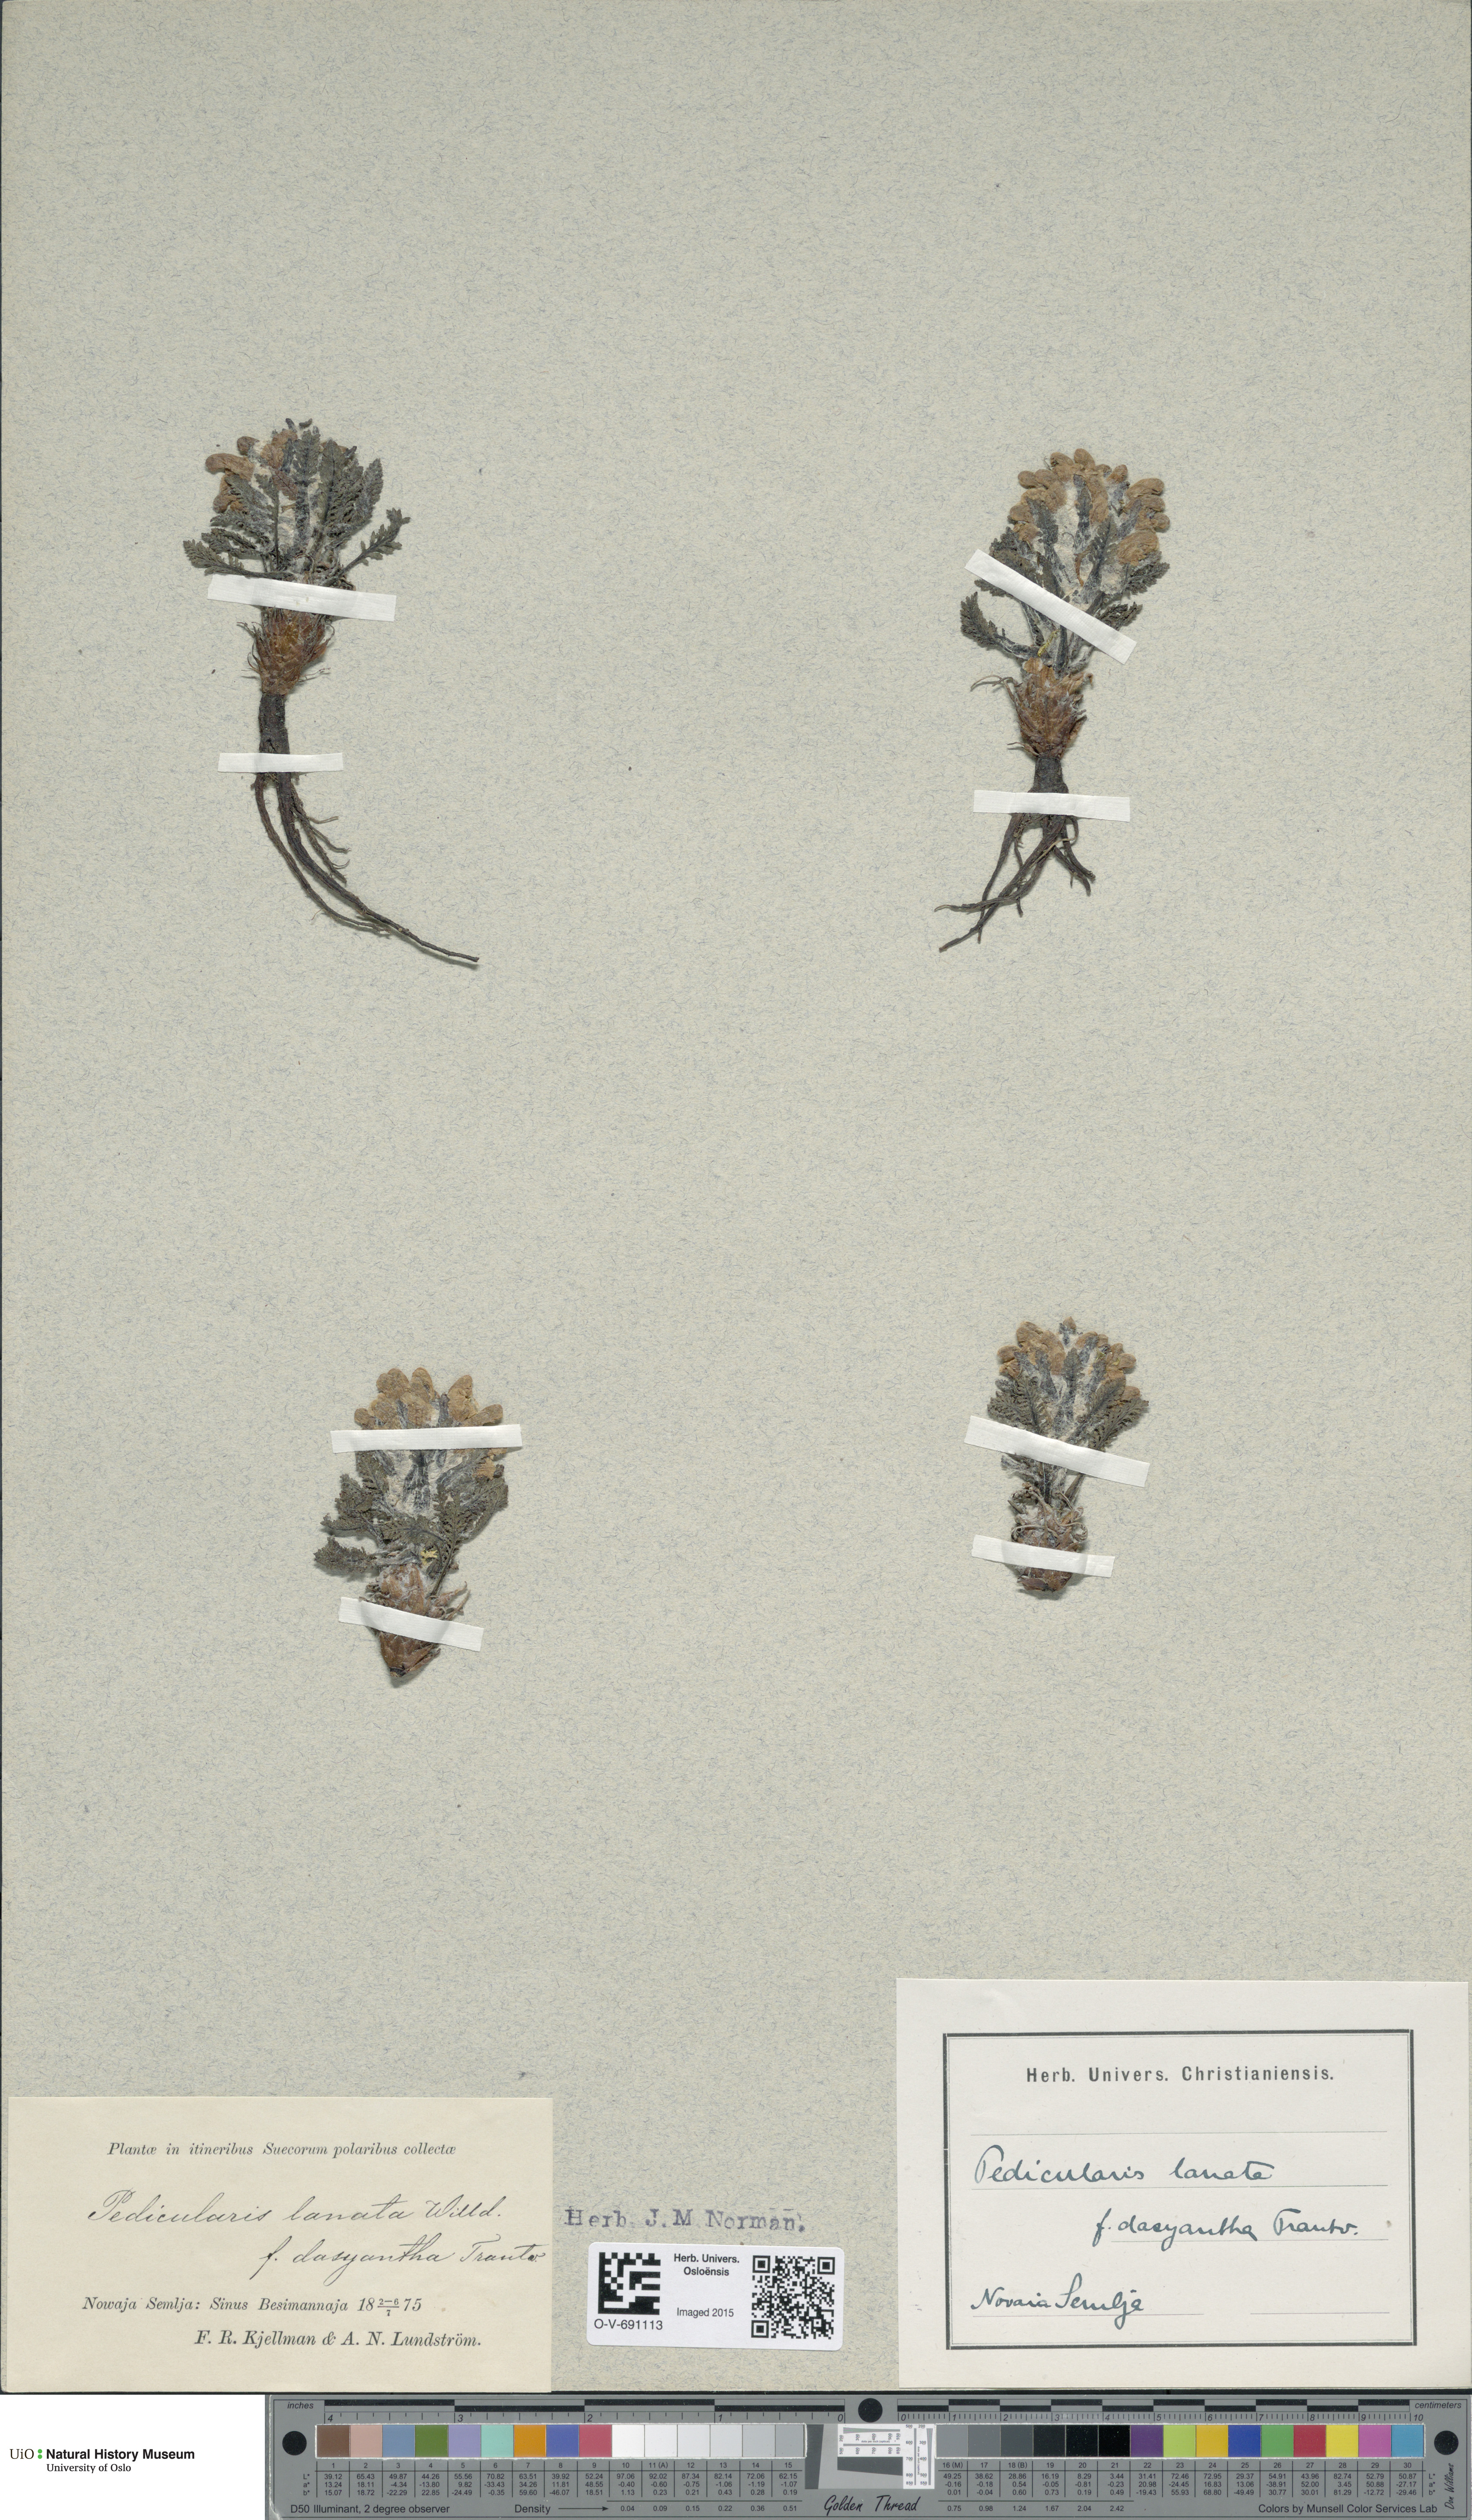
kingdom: Plantae
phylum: Tracheophyta
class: Magnoliopsida
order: Lamiales
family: Orobanchaceae
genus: Pedicularis
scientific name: Pedicularis dasyantha
